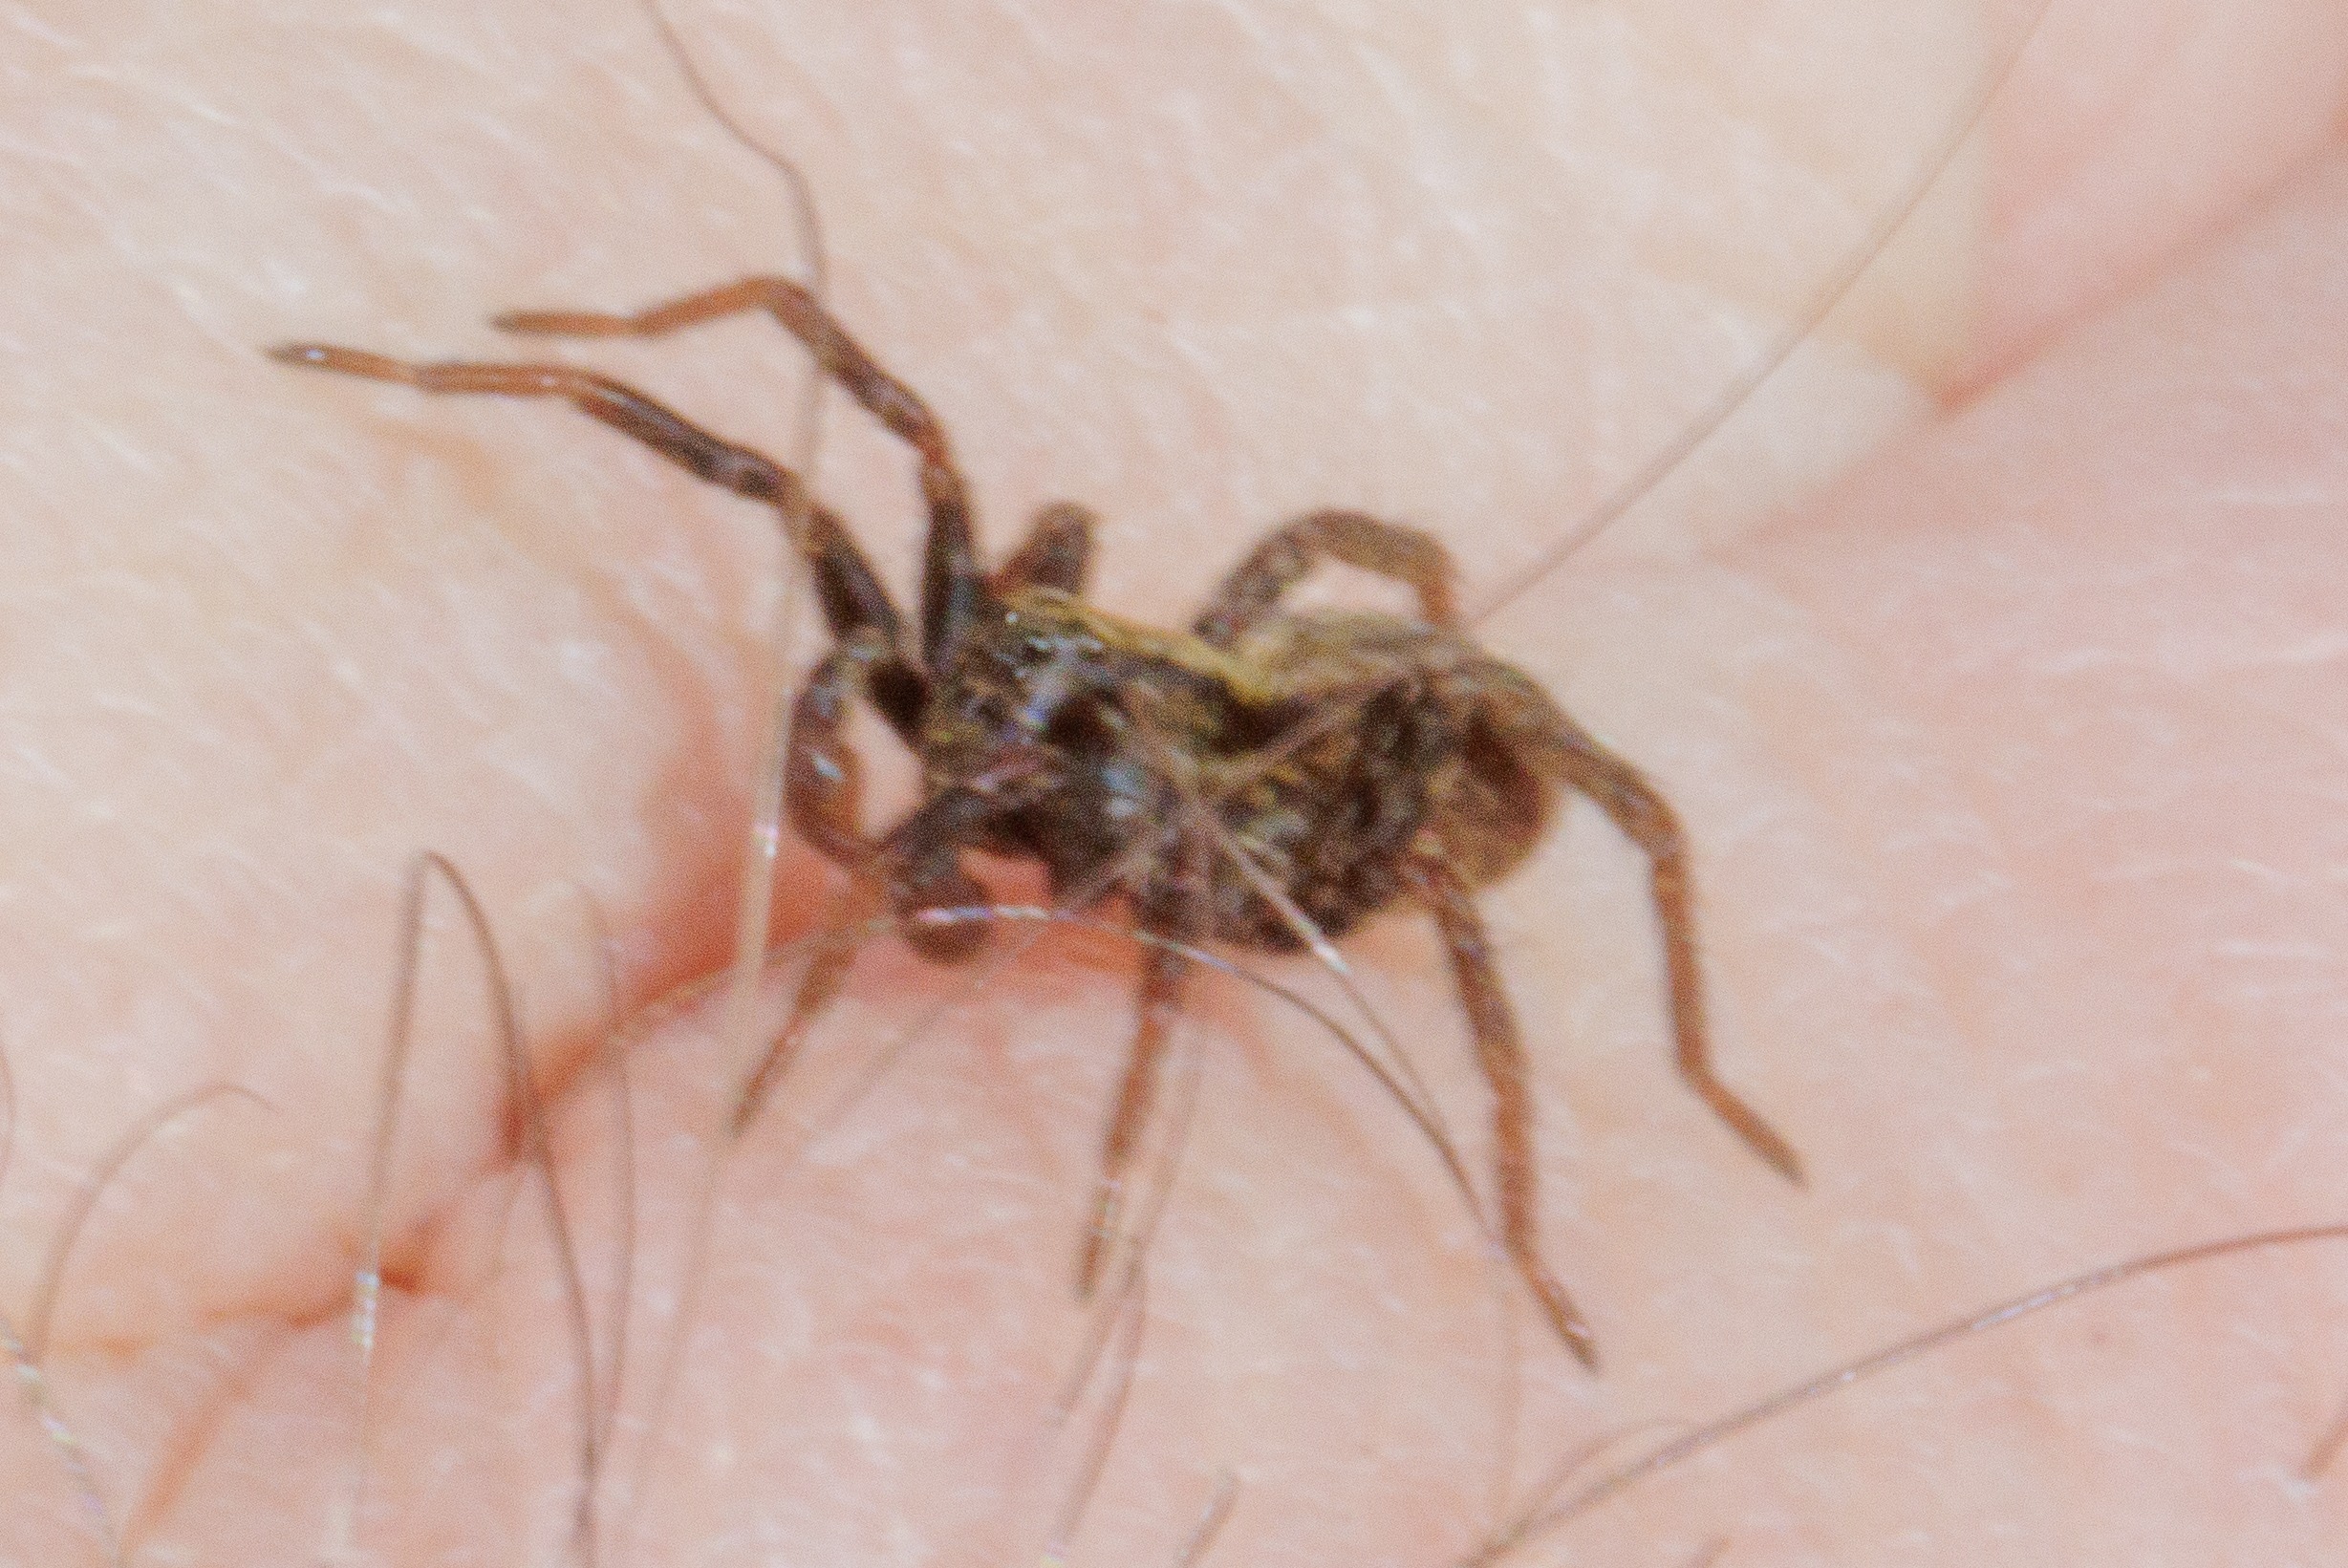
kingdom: Animalia
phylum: Arthropoda
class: Arachnida
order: Araneae
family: Lycosidae
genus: Alopecosa
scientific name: Alopecosa pulverulenta
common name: Kilekæmpejæger
